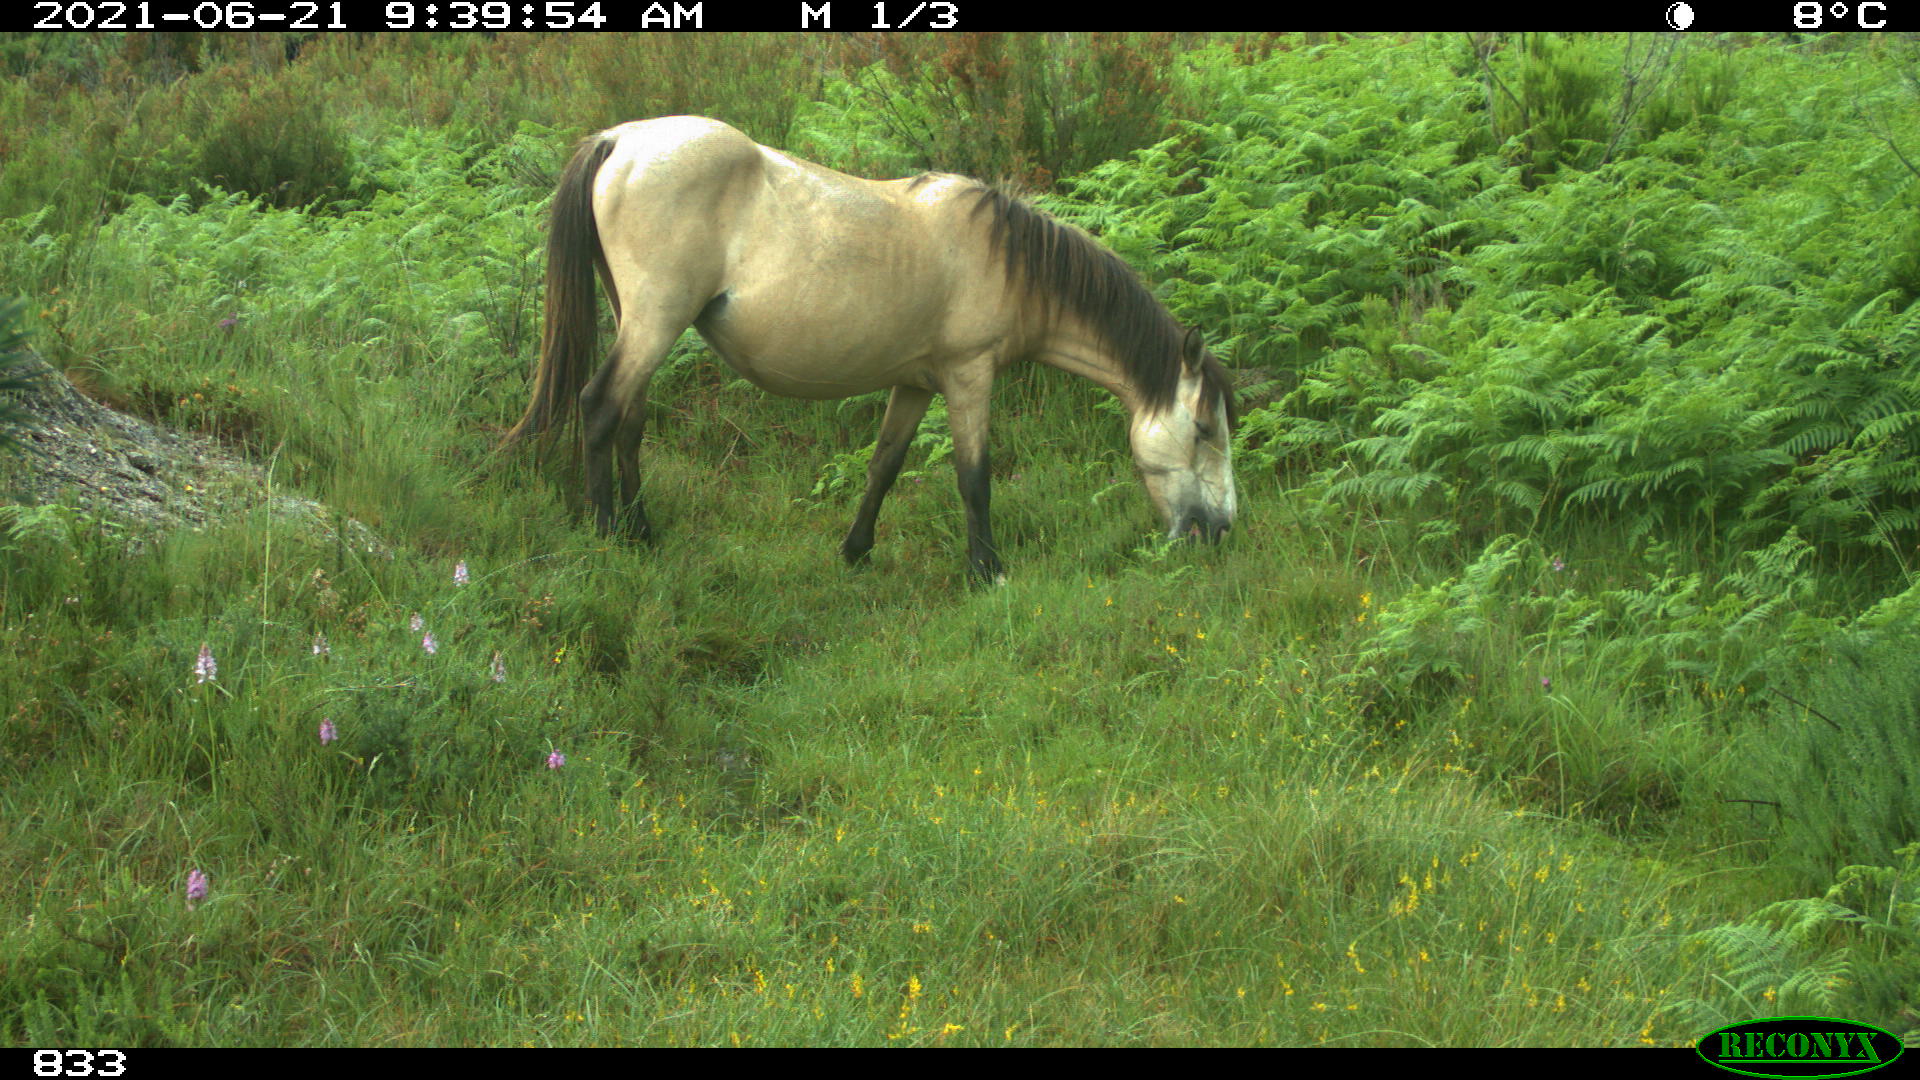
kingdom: Animalia
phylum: Chordata
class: Mammalia
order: Perissodactyla
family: Equidae
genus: Equus
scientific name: Equus caballus
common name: Horse
